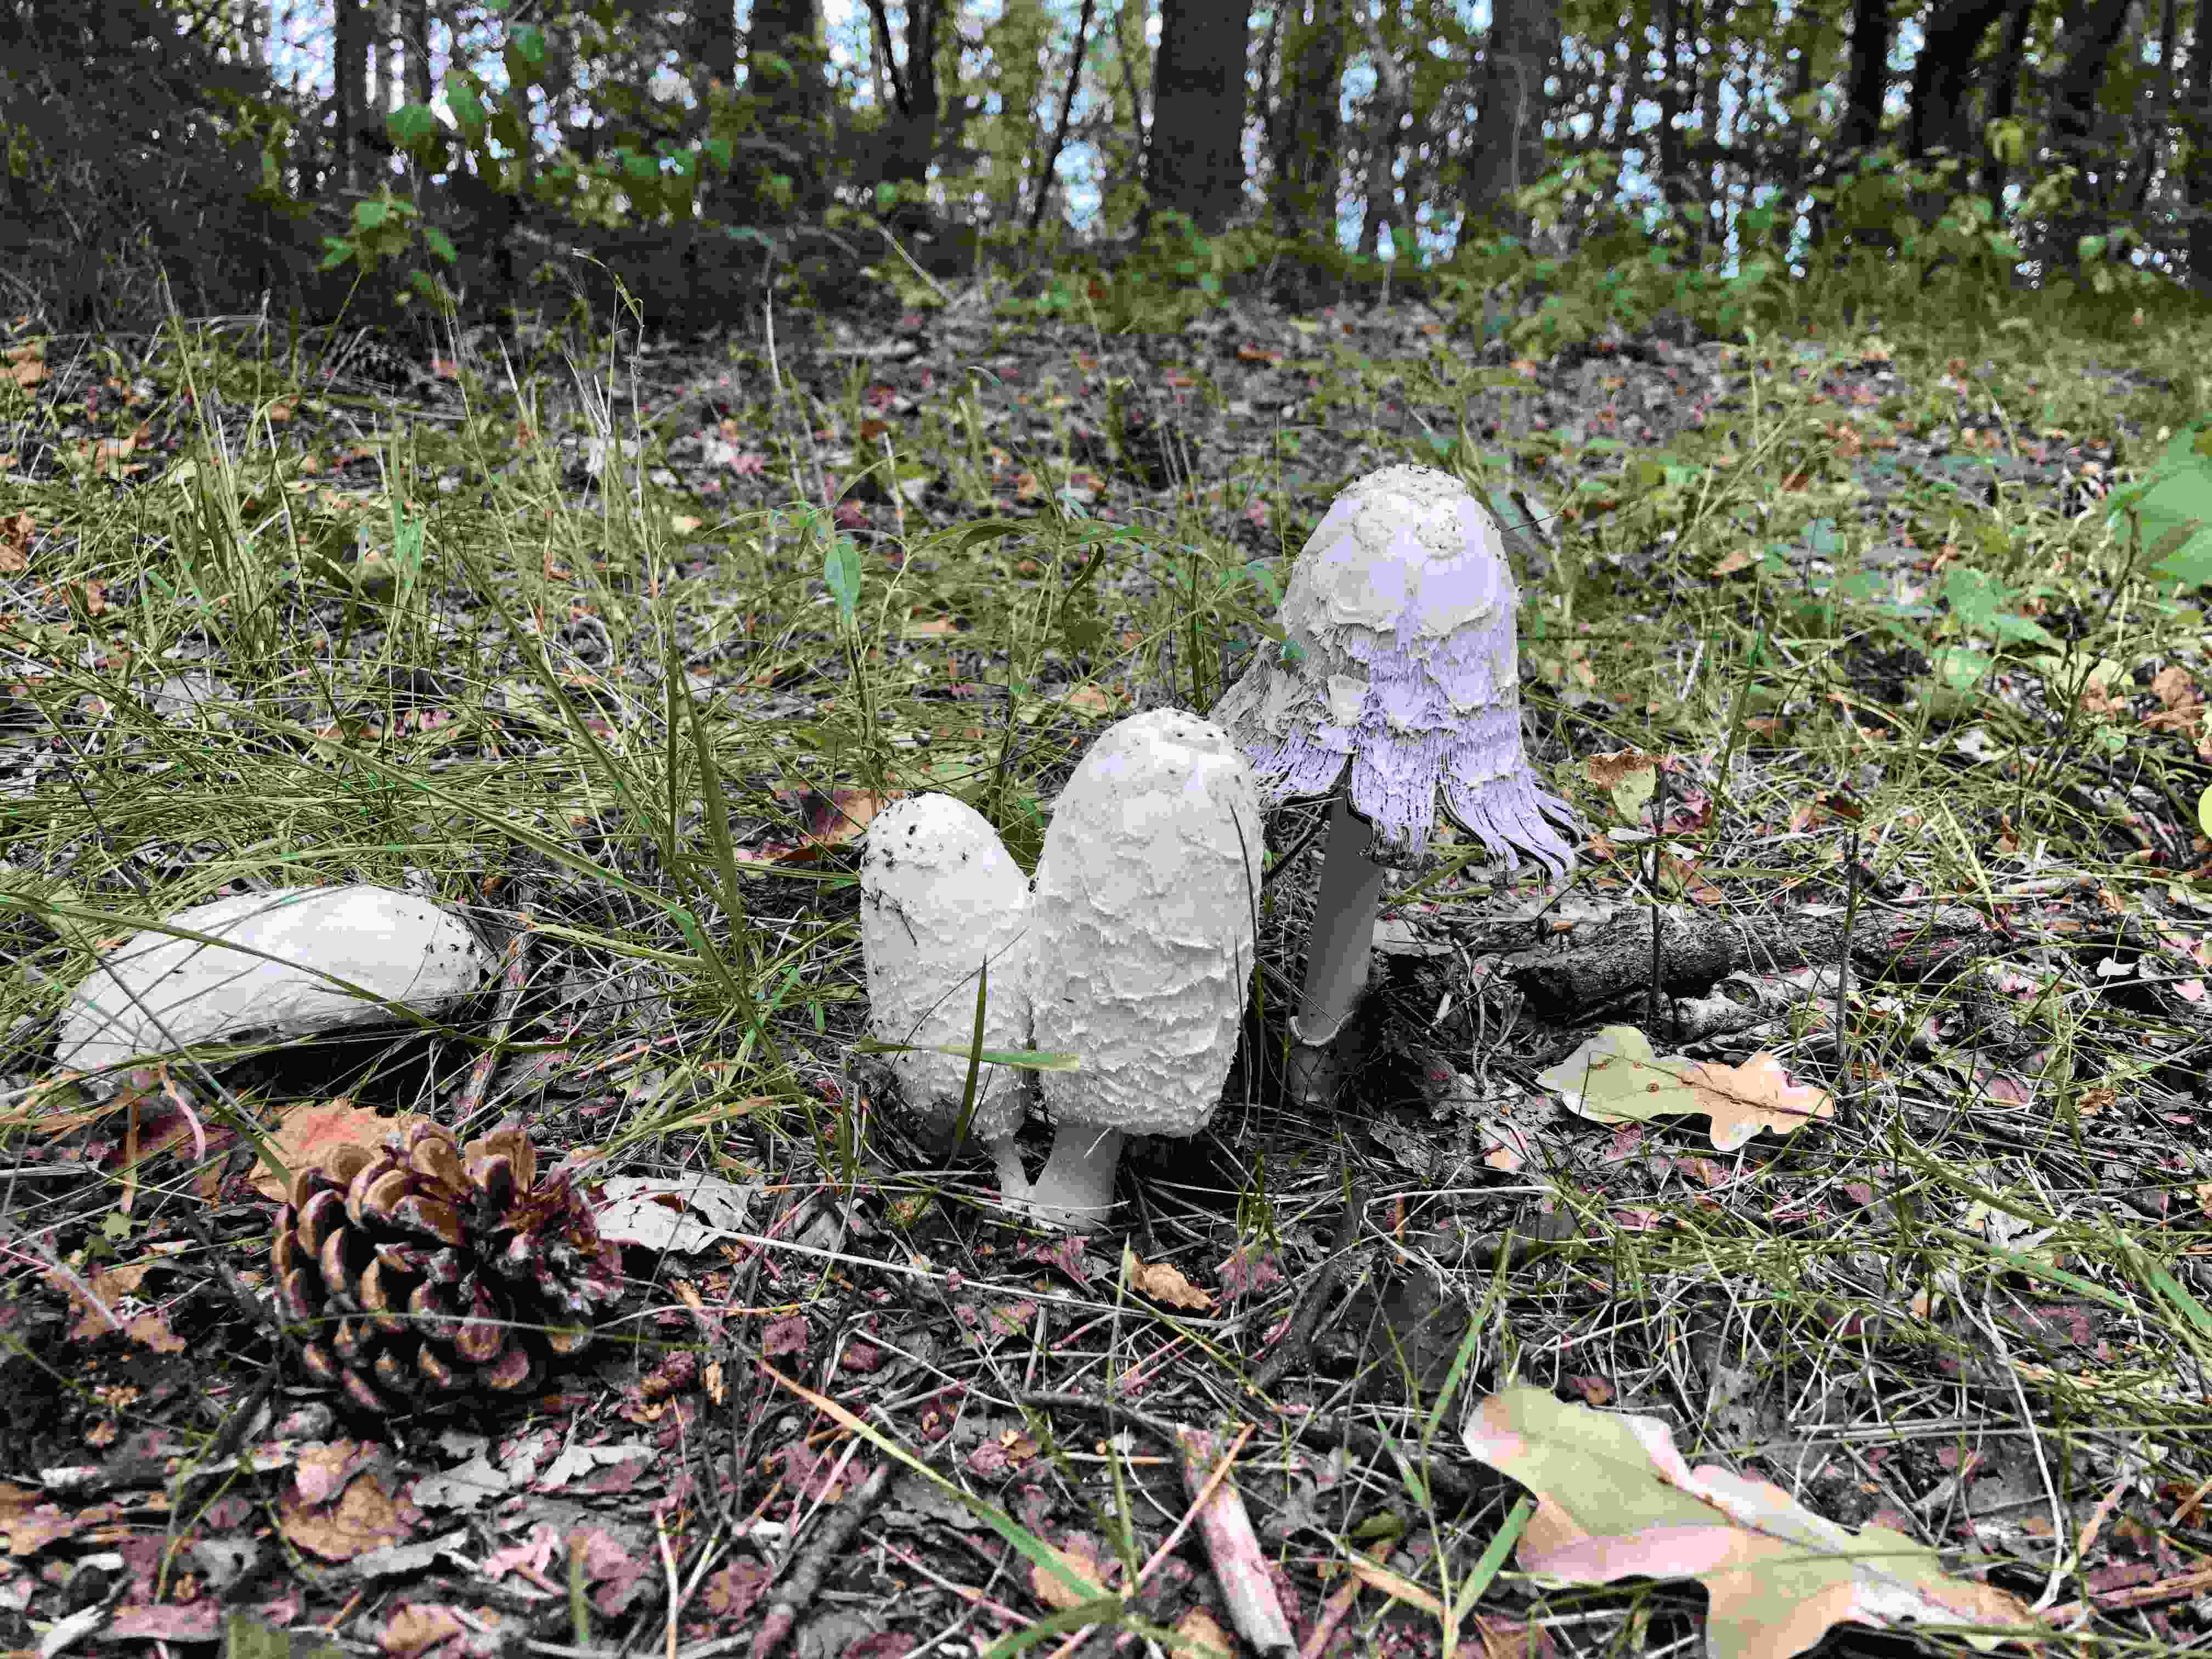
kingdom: Fungi
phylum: Basidiomycota
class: Agaricomycetes
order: Agaricales
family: Agaricaceae
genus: Coprinus
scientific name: Coprinus comatus
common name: stor parykhat
